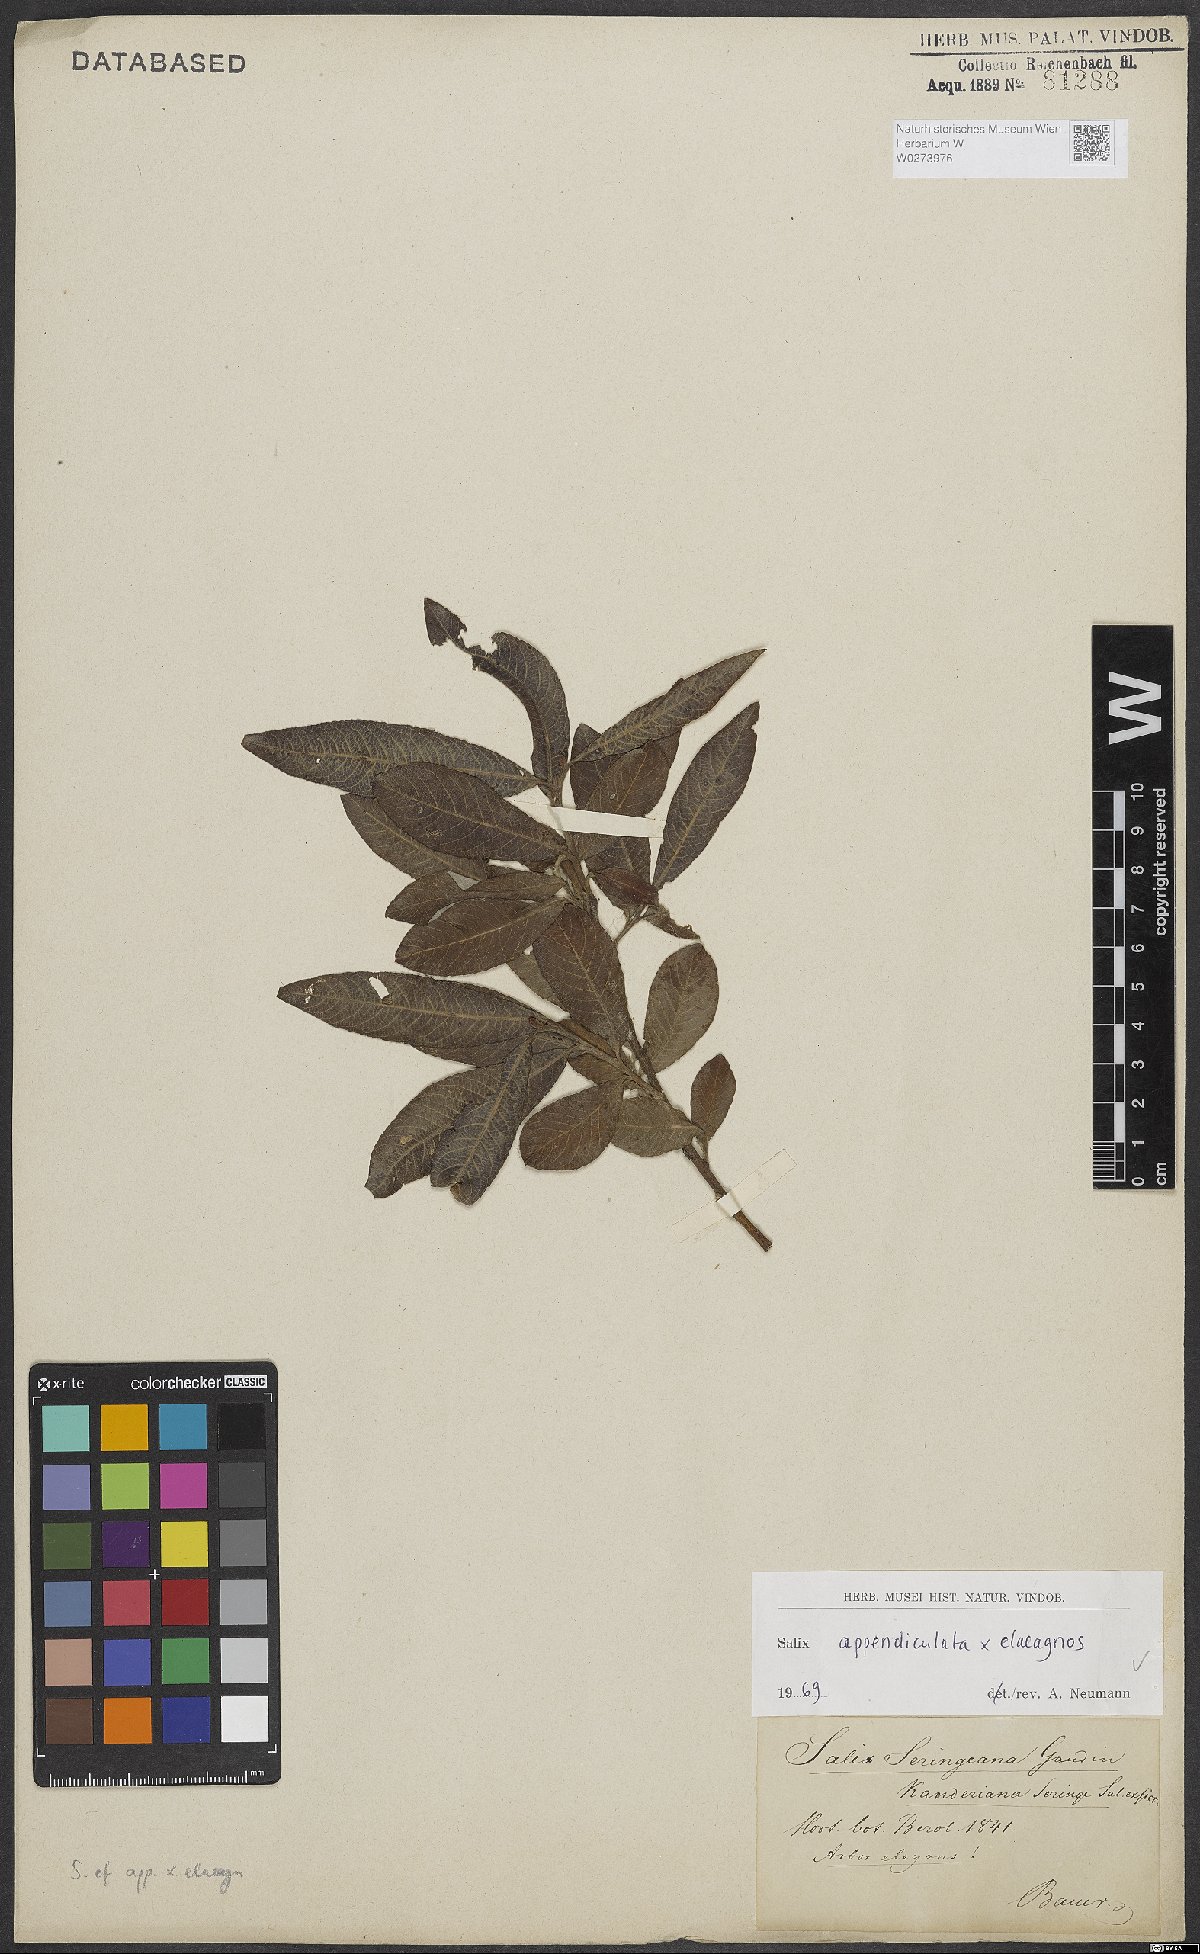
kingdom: Plantae
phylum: Tracheophyta
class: Magnoliopsida
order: Malpighiales
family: Salicaceae
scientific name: Salicaceae
